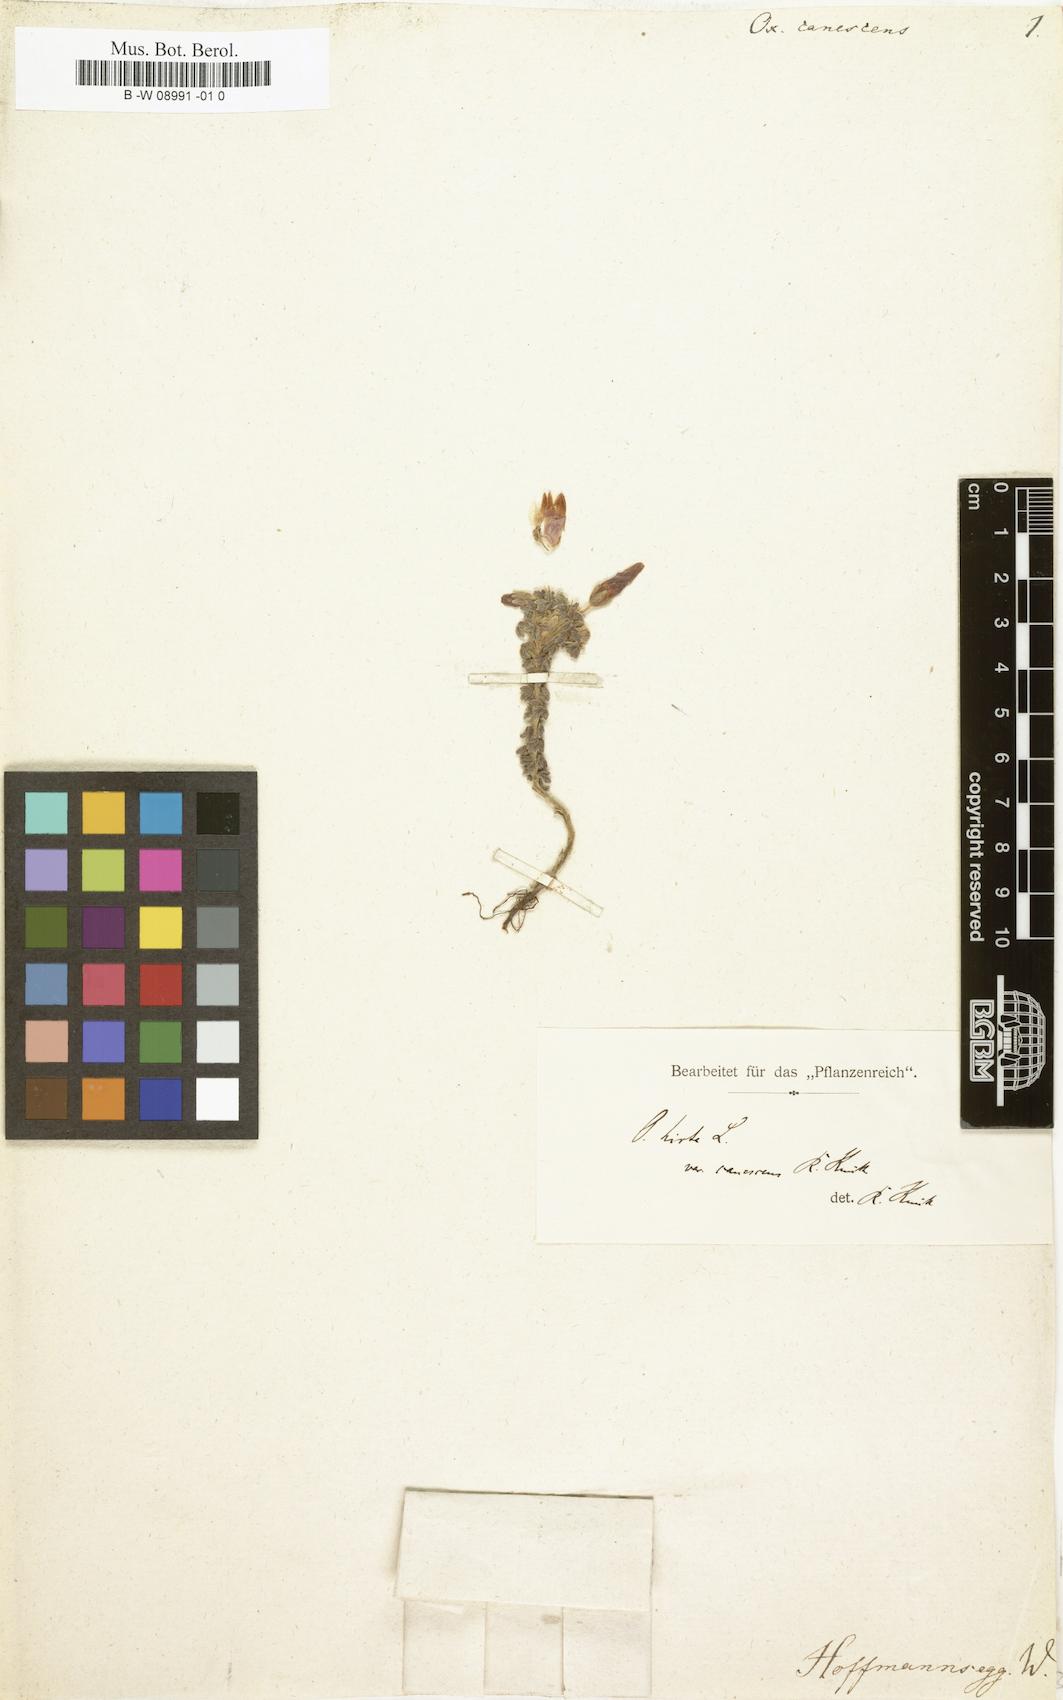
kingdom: Plantae
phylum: Tracheophyta
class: Magnoliopsida
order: Oxalidales
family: Oxalidaceae
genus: Oxalis
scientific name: Oxalis hirta
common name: Tropical woodsorrel
